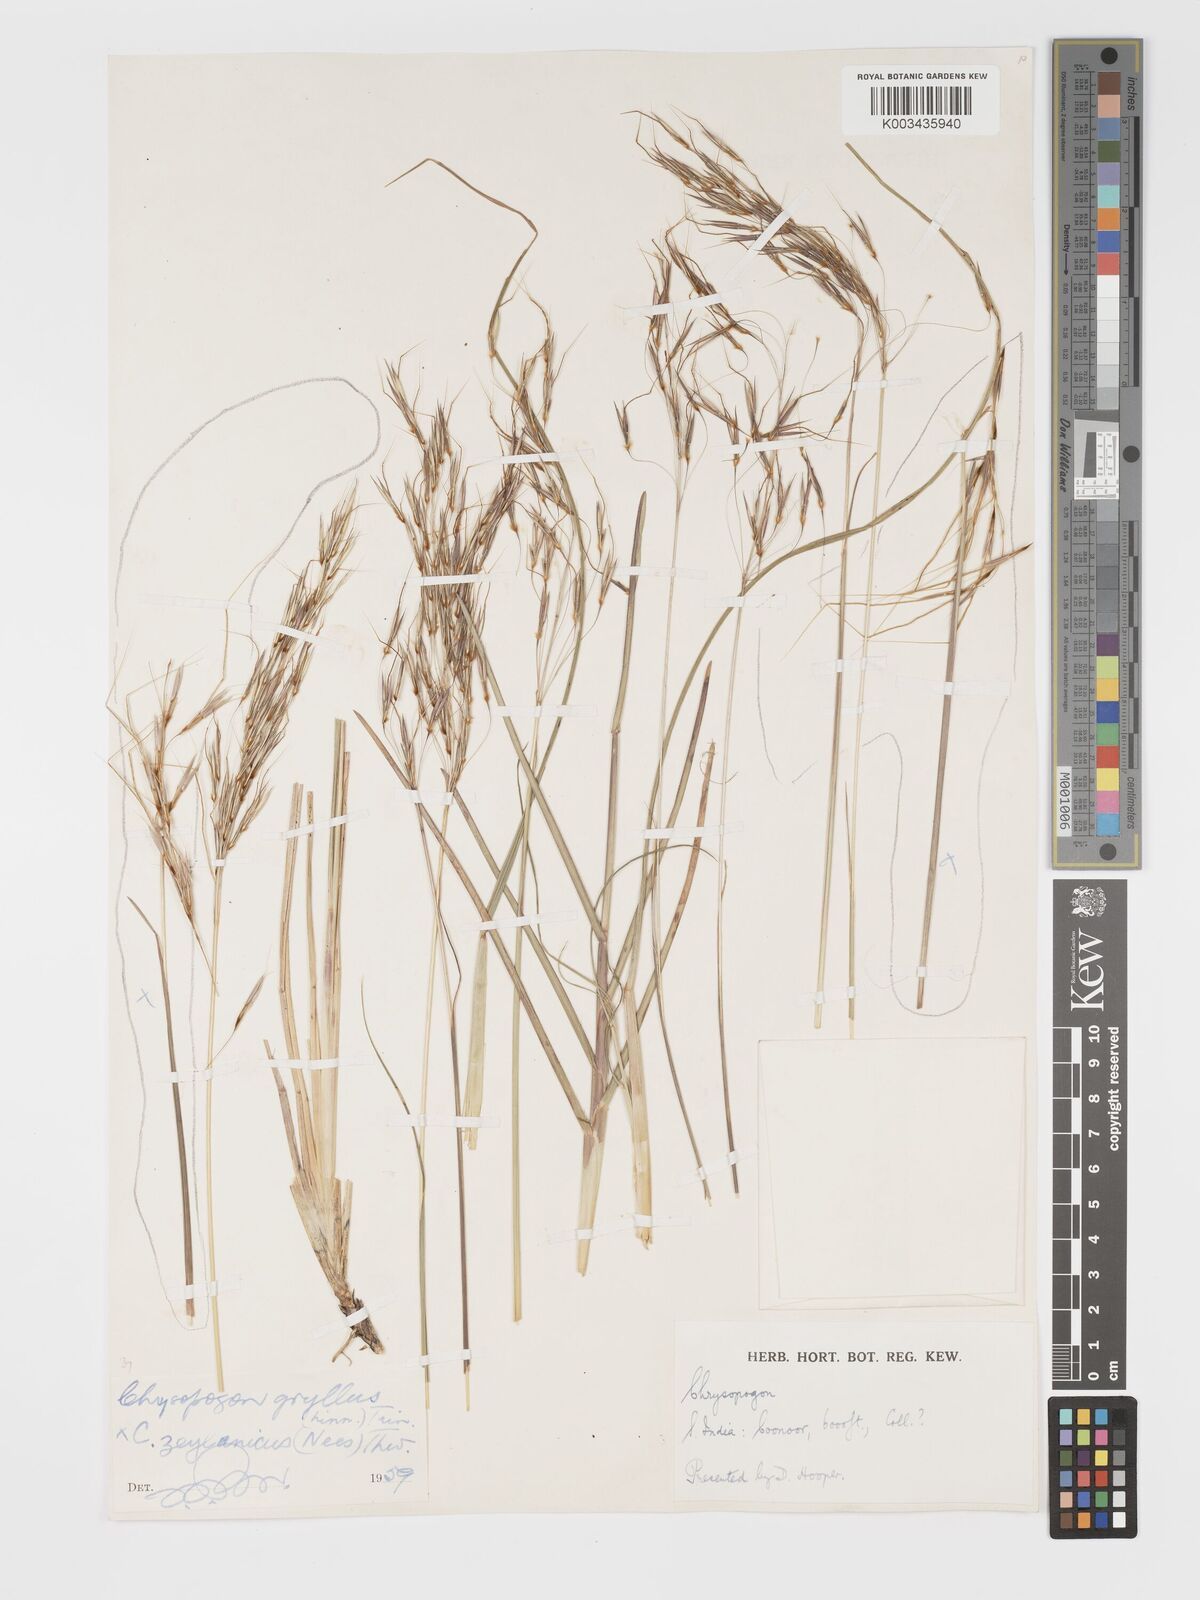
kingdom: Plantae
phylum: Tracheophyta
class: Liliopsida
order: Poales
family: Poaceae
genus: Chrysopogon
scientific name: Chrysopogon gryllus
